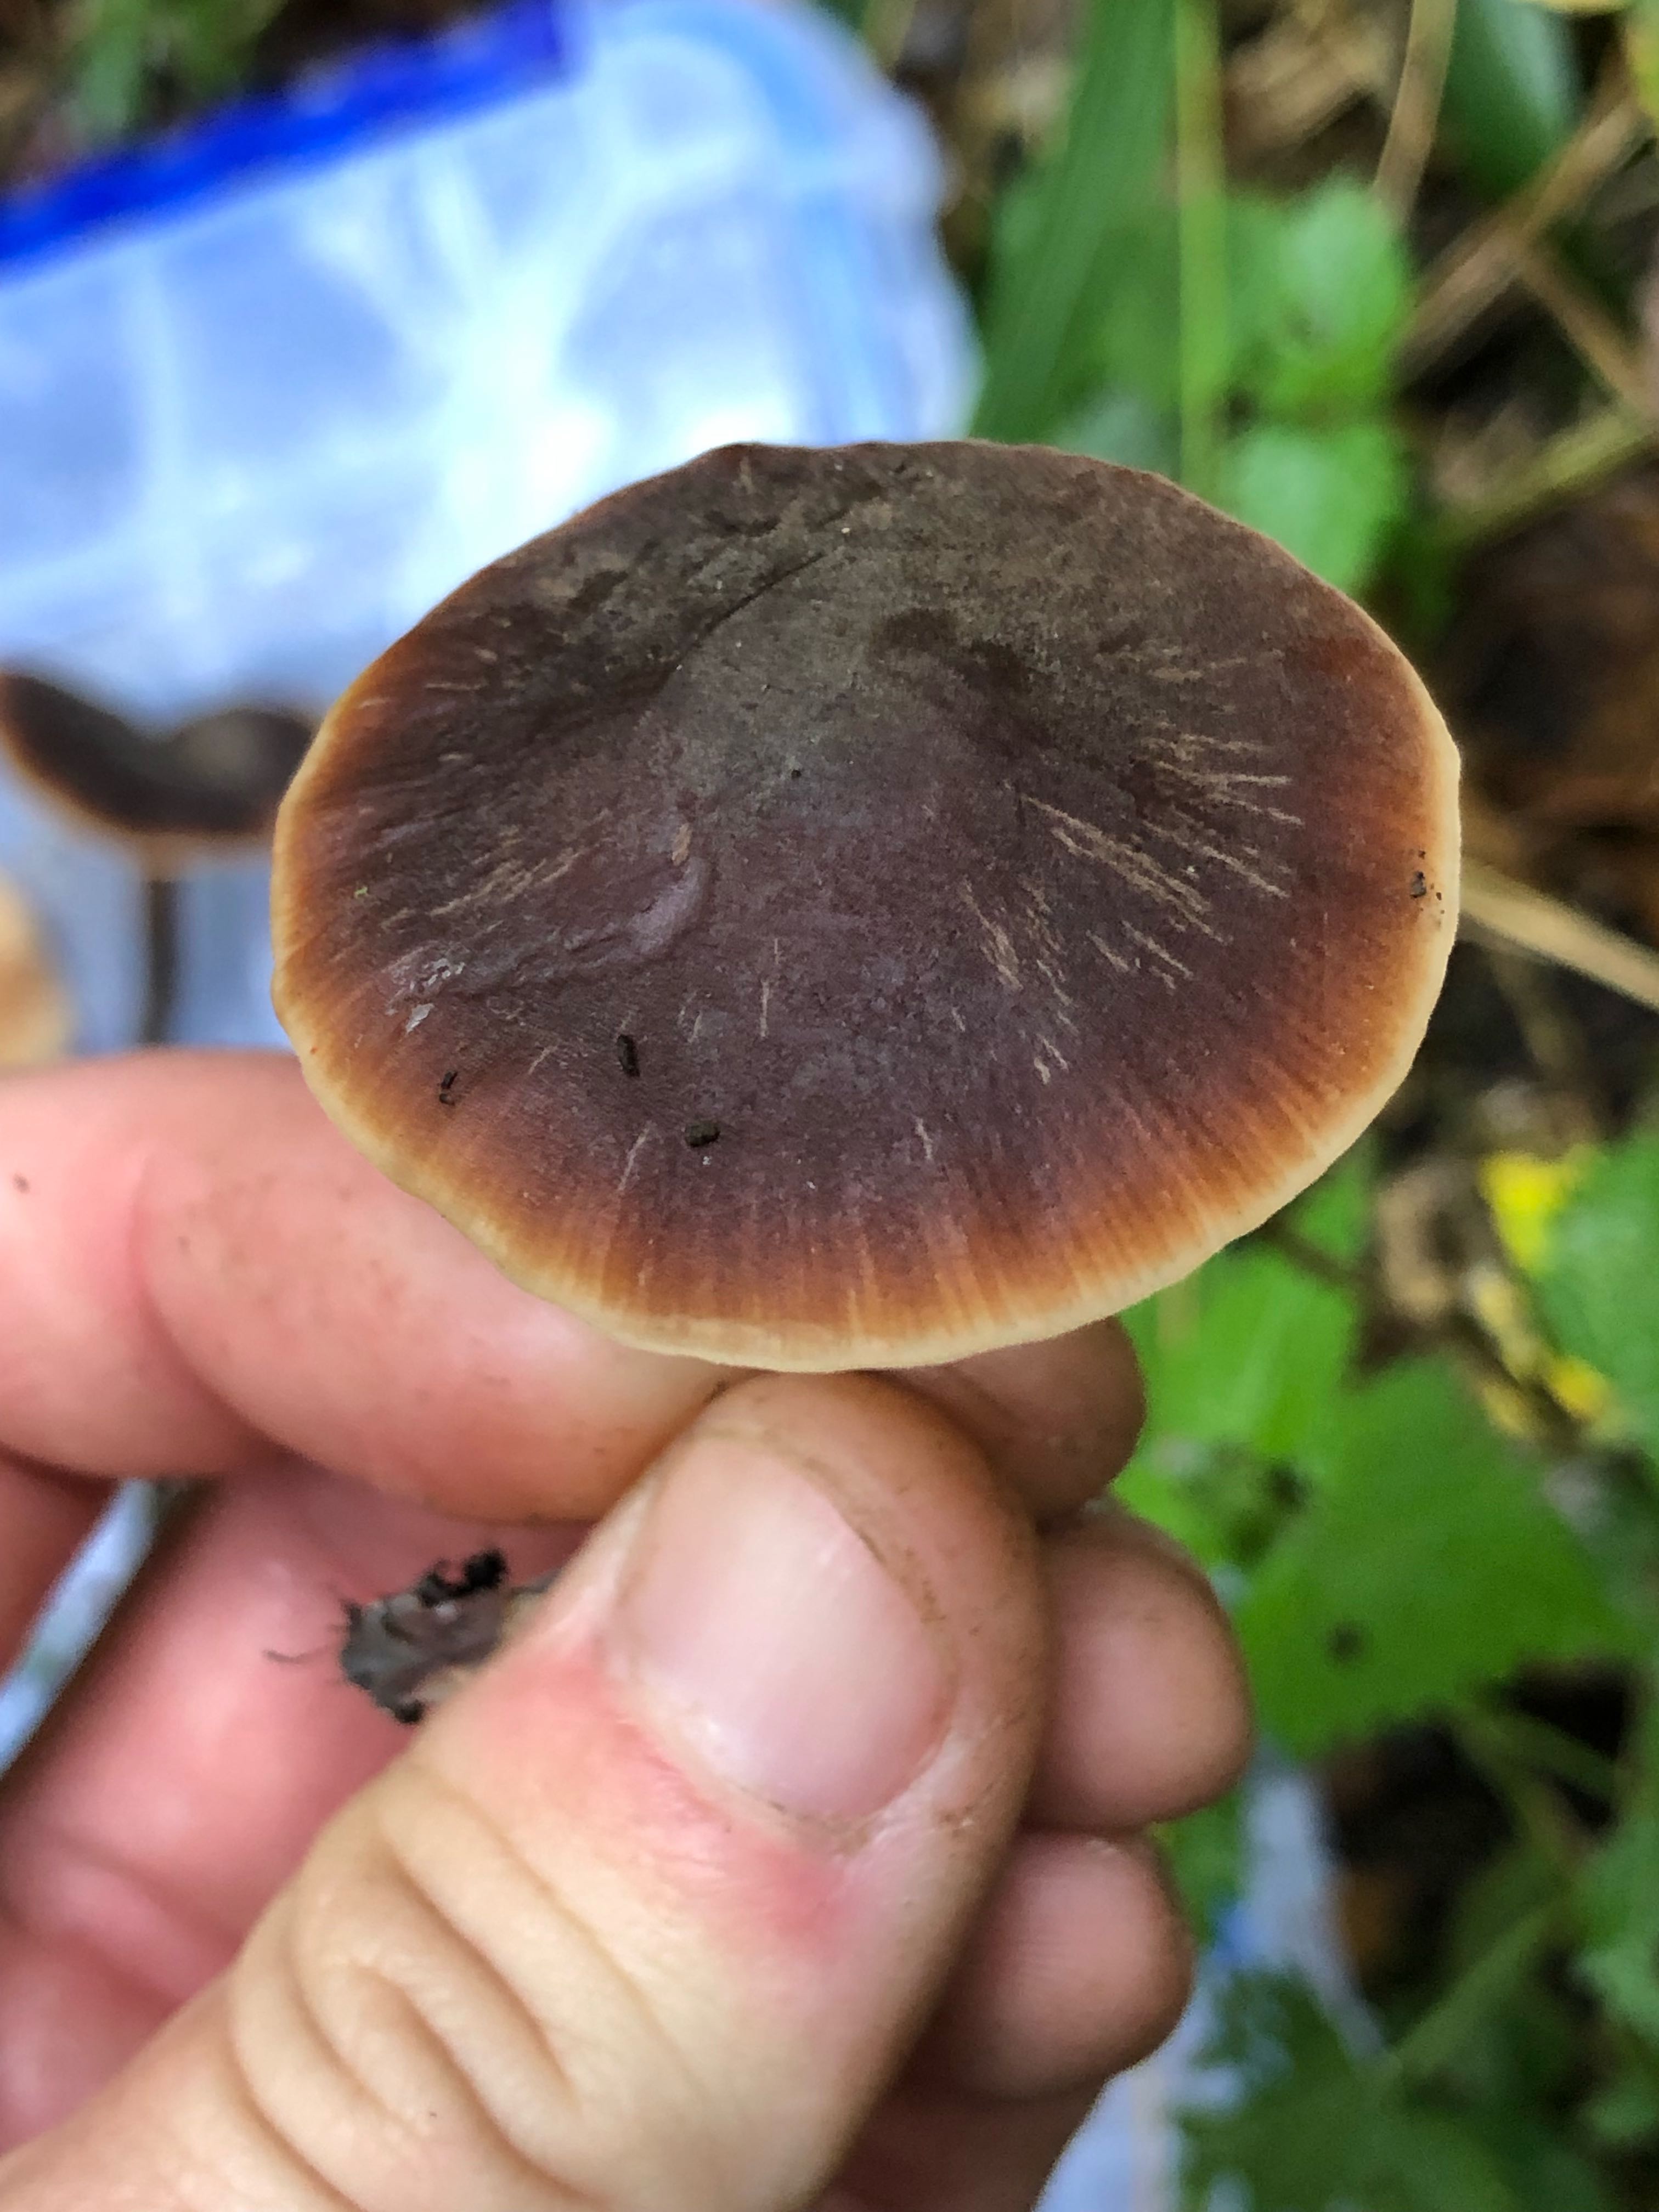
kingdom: Fungi
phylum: Basidiomycota
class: Agaricomycetes
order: Agaricales
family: Macrocystidiaceae
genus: Macrocystidia
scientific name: Macrocystidia cucumis
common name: agurkehat
